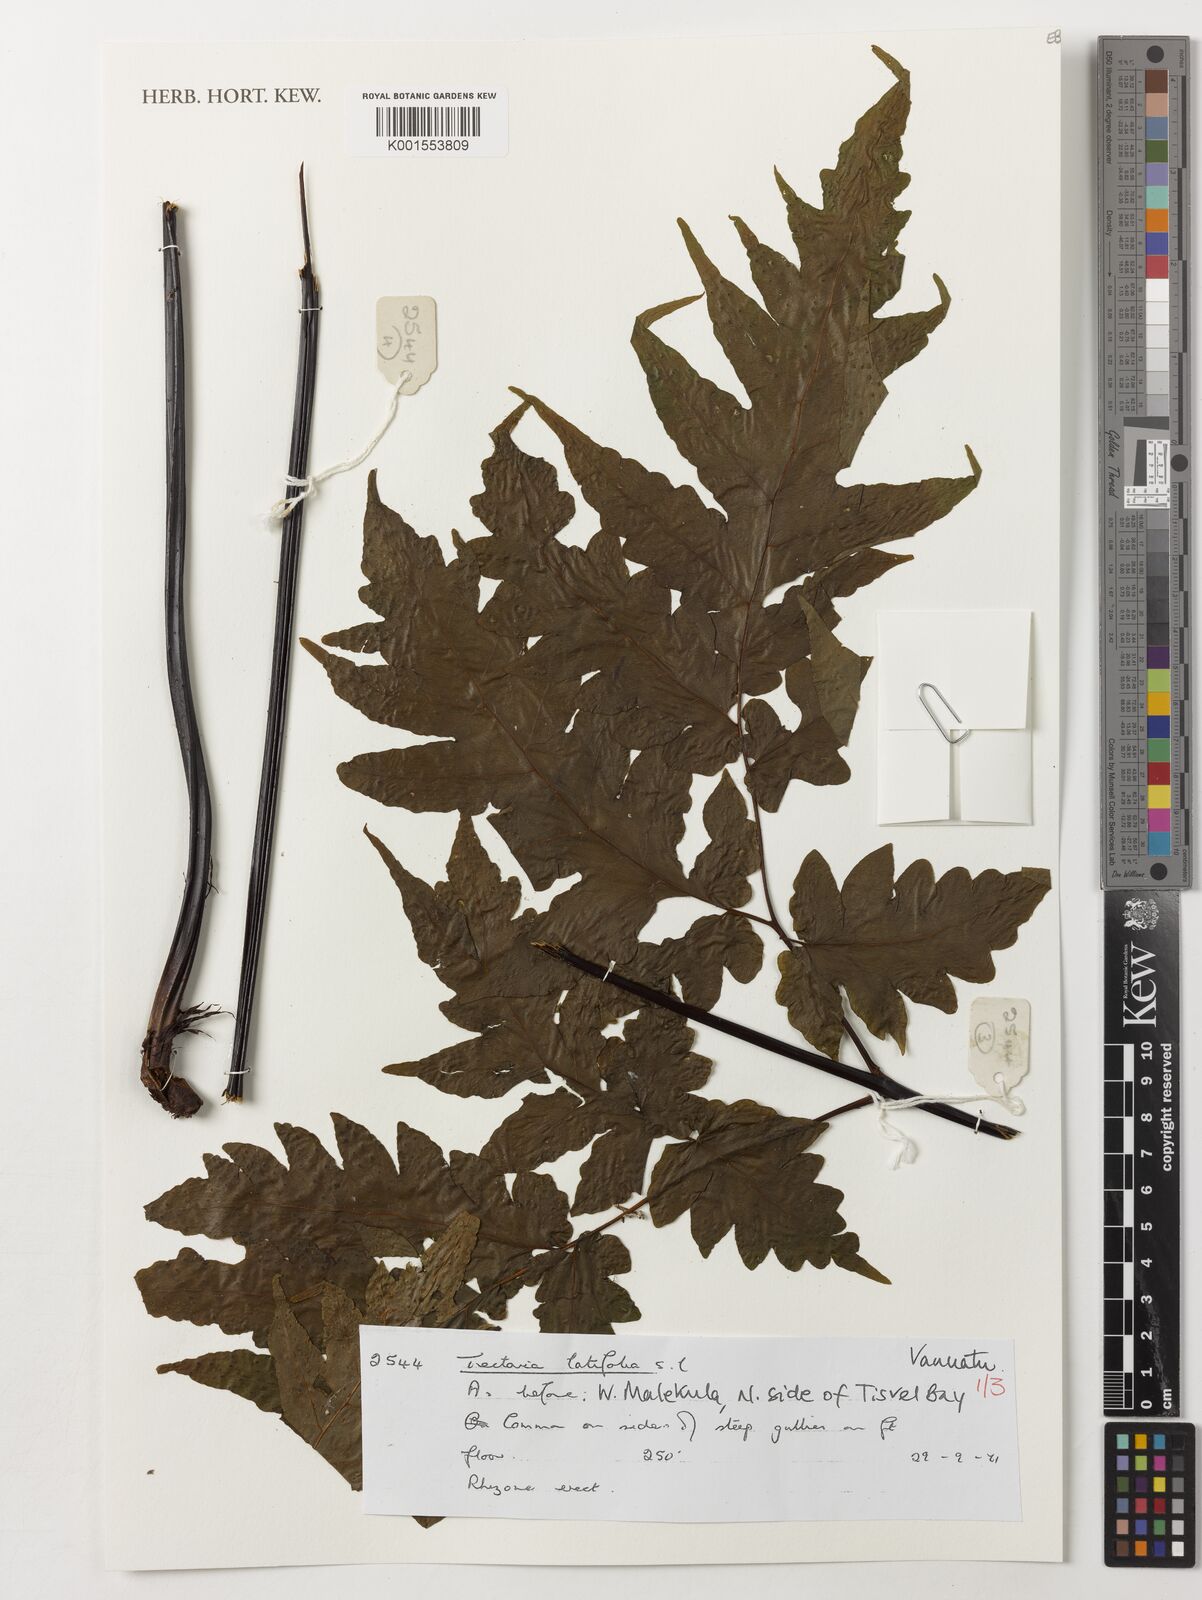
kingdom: Plantae
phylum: Tracheophyta
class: Polypodiopsida
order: Polypodiales
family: Tectariaceae
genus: Tectaria
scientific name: Tectaria
